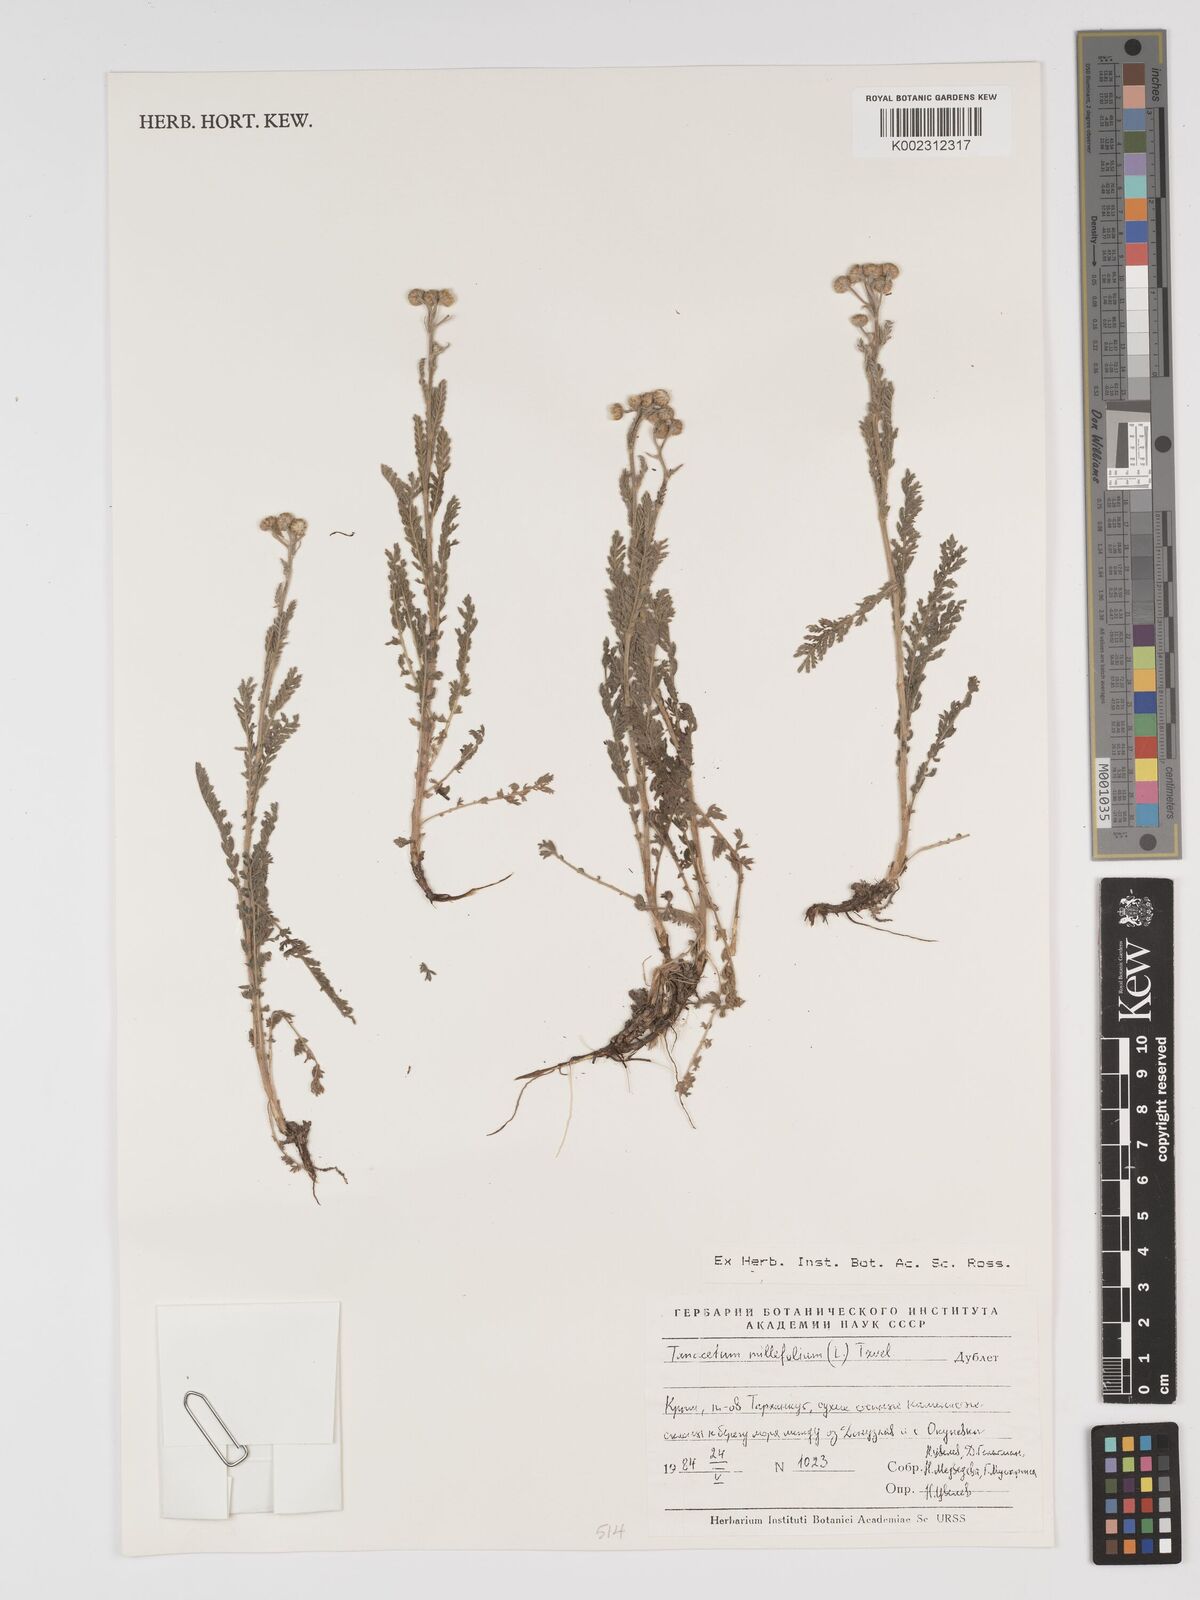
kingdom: Plantae
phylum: Tracheophyta
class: Magnoliopsida
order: Asterales
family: Asteraceae
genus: Tanacetum
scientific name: Tanacetum millefolium
